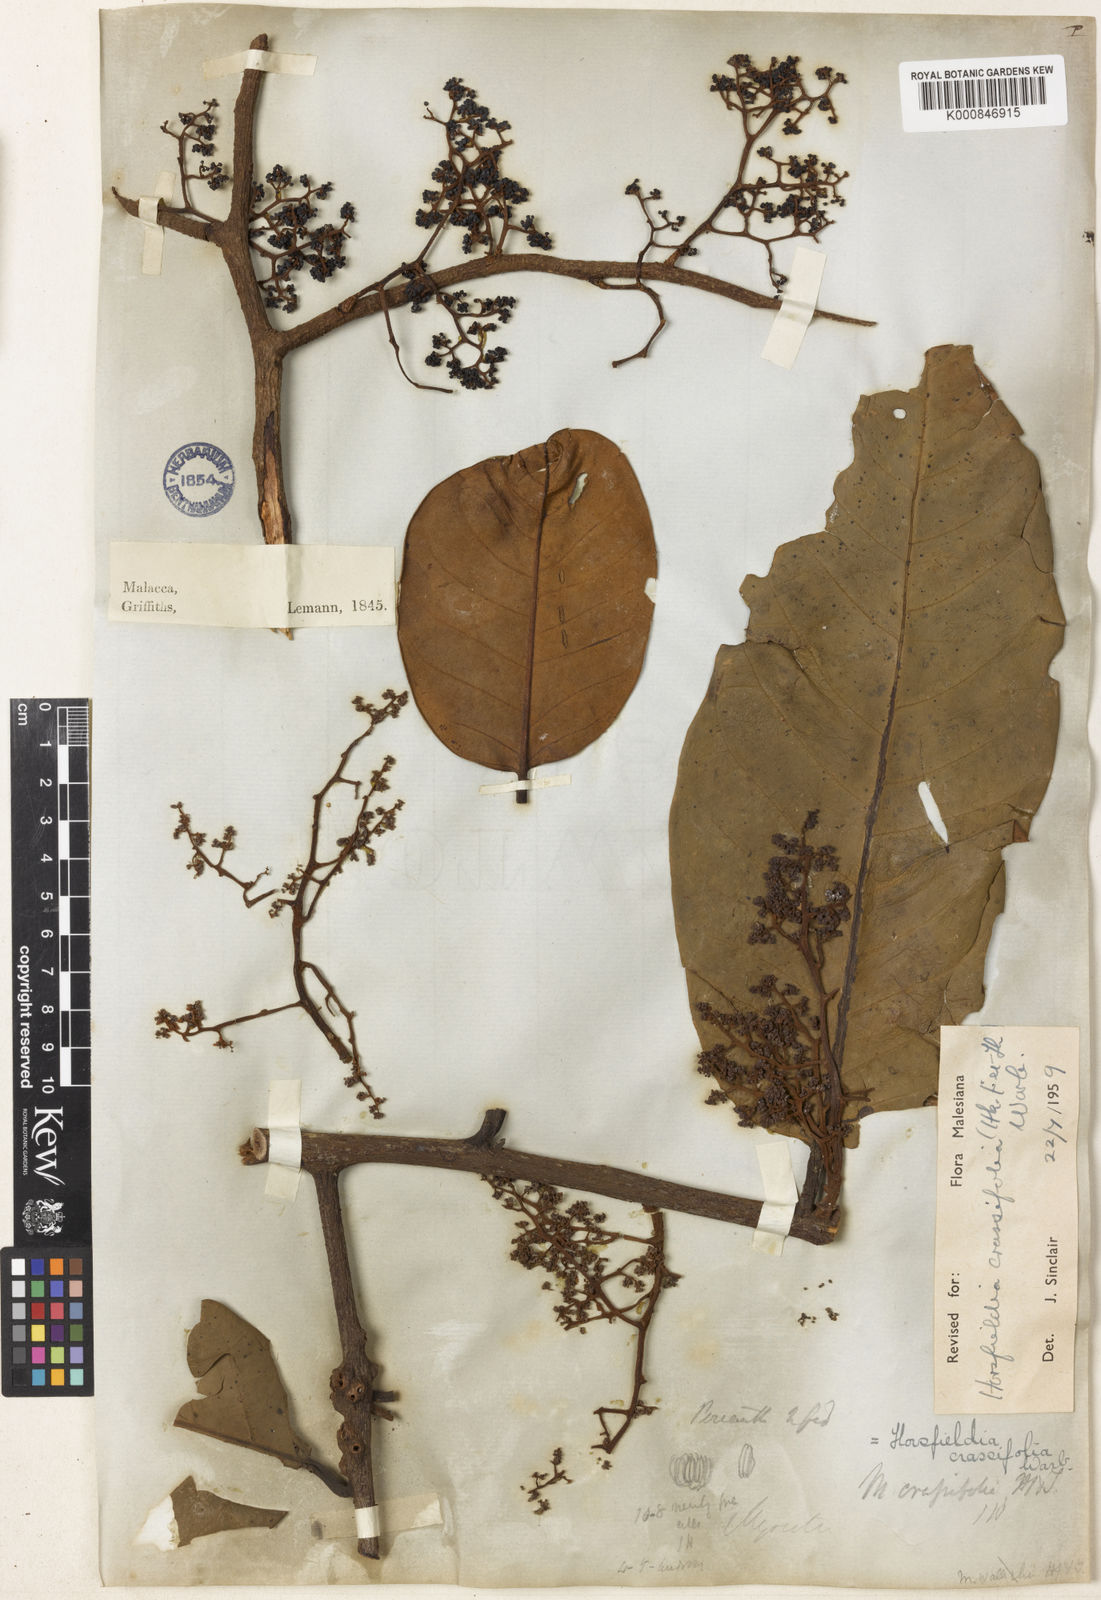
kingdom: Plantae
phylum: Tracheophyta
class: Magnoliopsida
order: Magnoliales
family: Myristicaceae
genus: Horsfieldia
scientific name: Horsfieldia crassifolia
